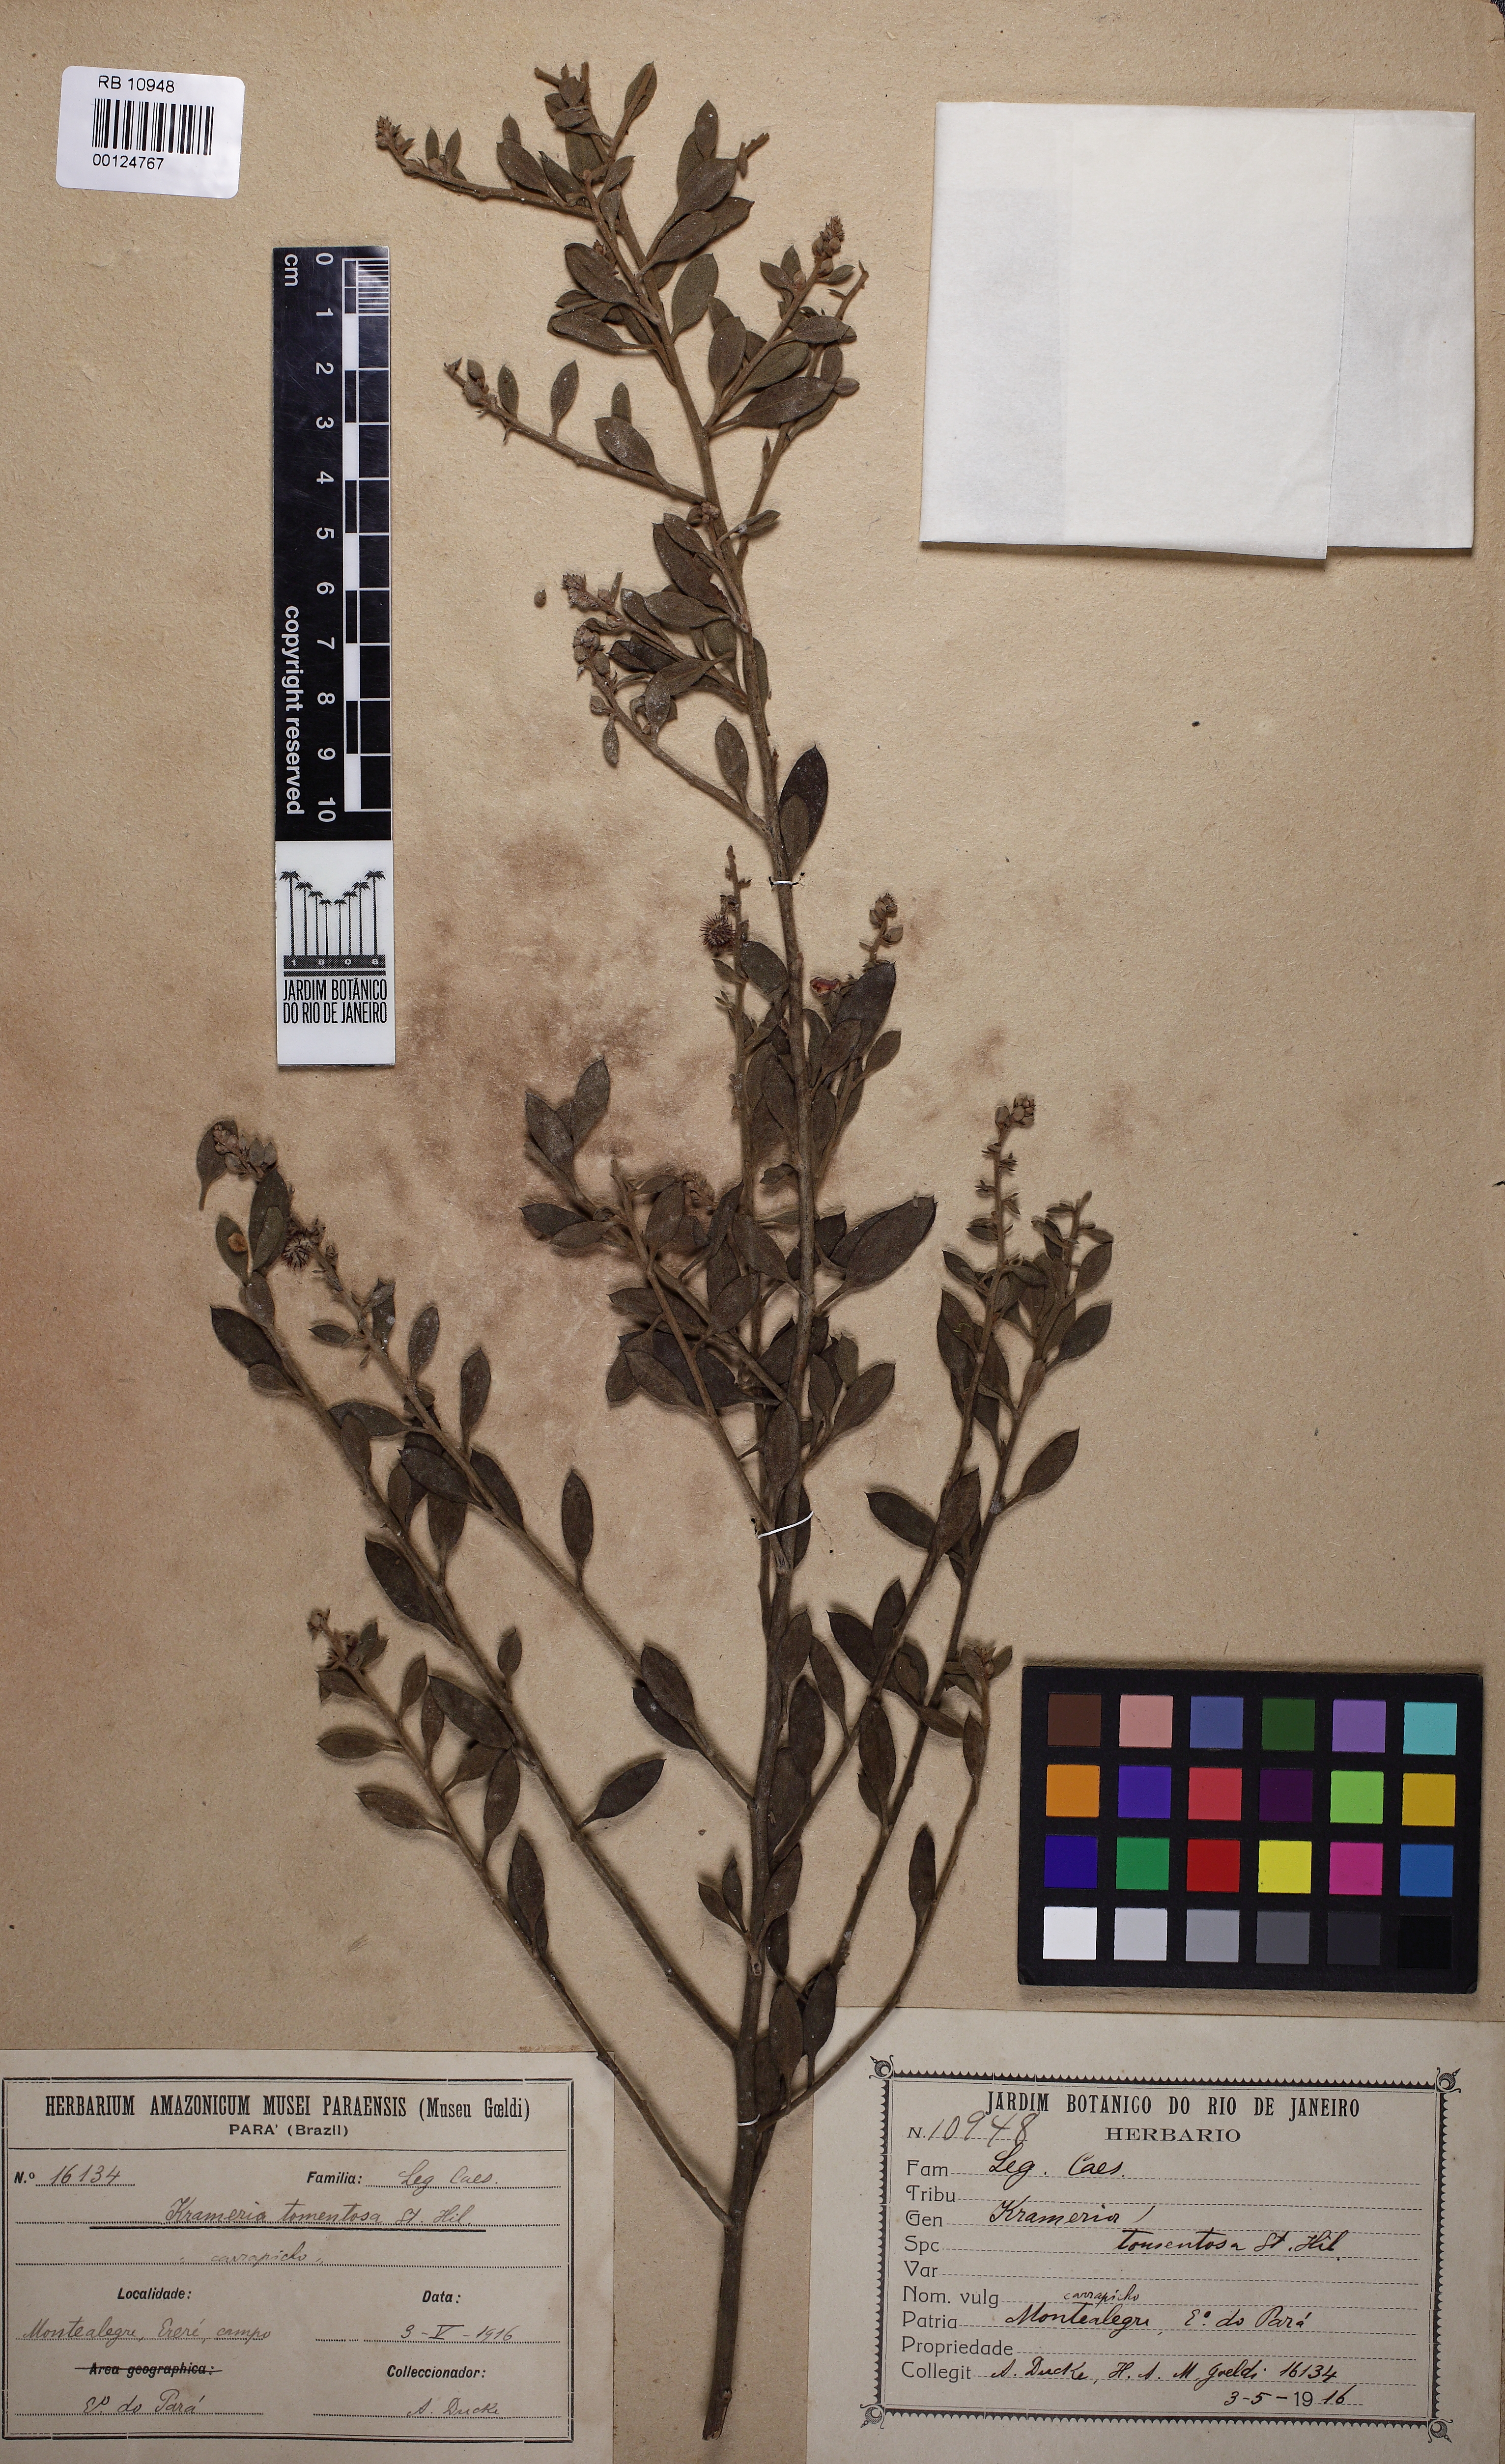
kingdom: Plantae
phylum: Tracheophyta
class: Magnoliopsida
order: Zygophyllales
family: Krameriaceae
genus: Krameria
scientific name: Krameria tomentosa
